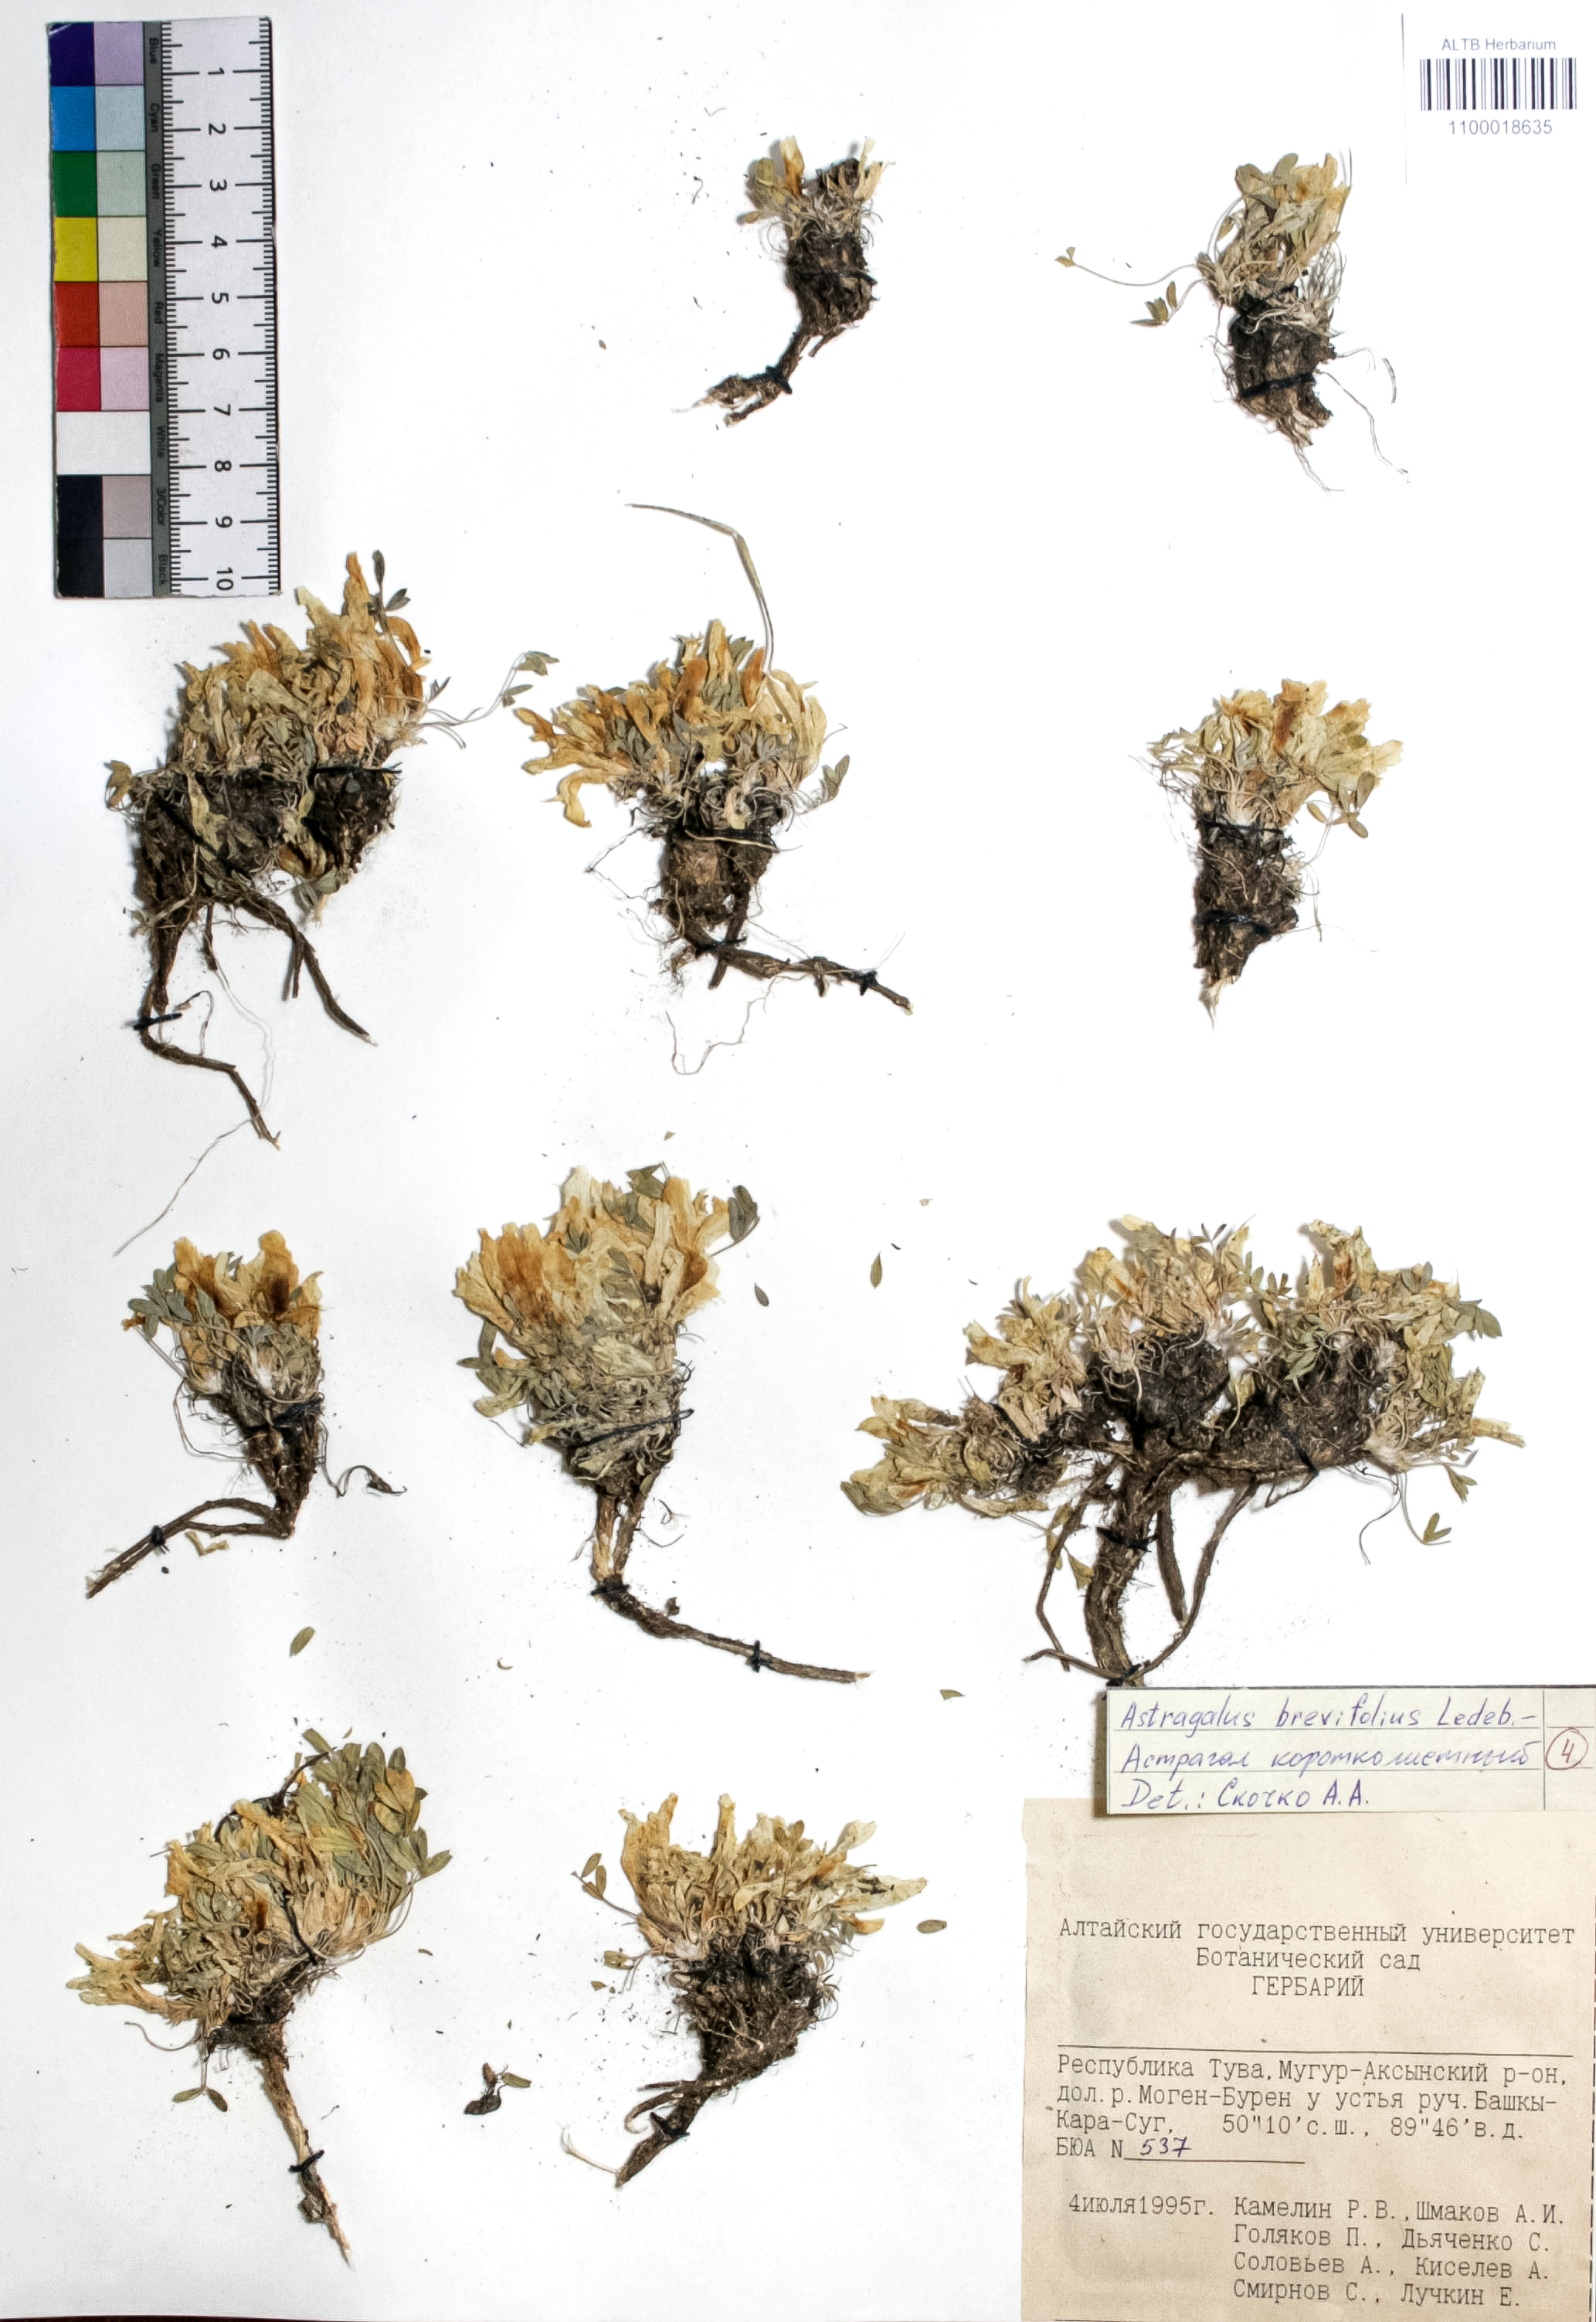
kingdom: Plantae
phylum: Tracheophyta
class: Magnoliopsida
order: Fabales
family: Fabaceae
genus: Astragalus
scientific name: Astragalus brevifolius
